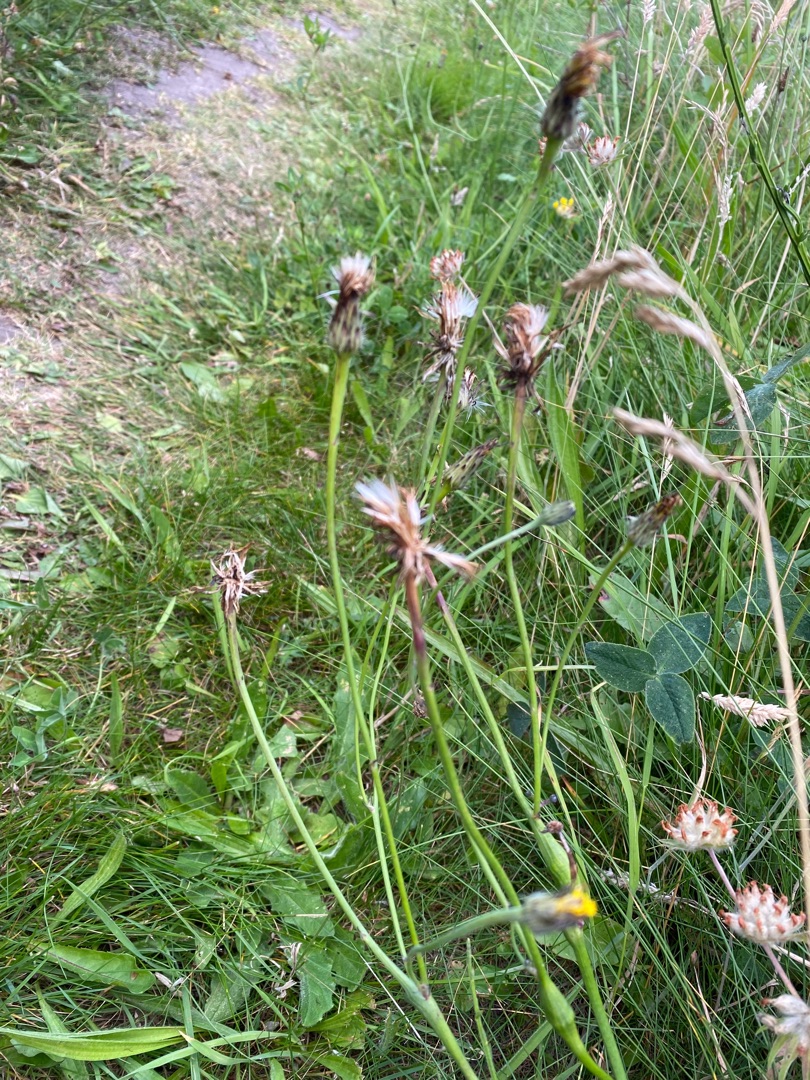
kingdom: Animalia
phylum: Arthropoda
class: Insecta
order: Hymenoptera
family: Cynipidae
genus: Phanacis
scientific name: Phanacis hypochoeridis
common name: Kongepengalhveps
